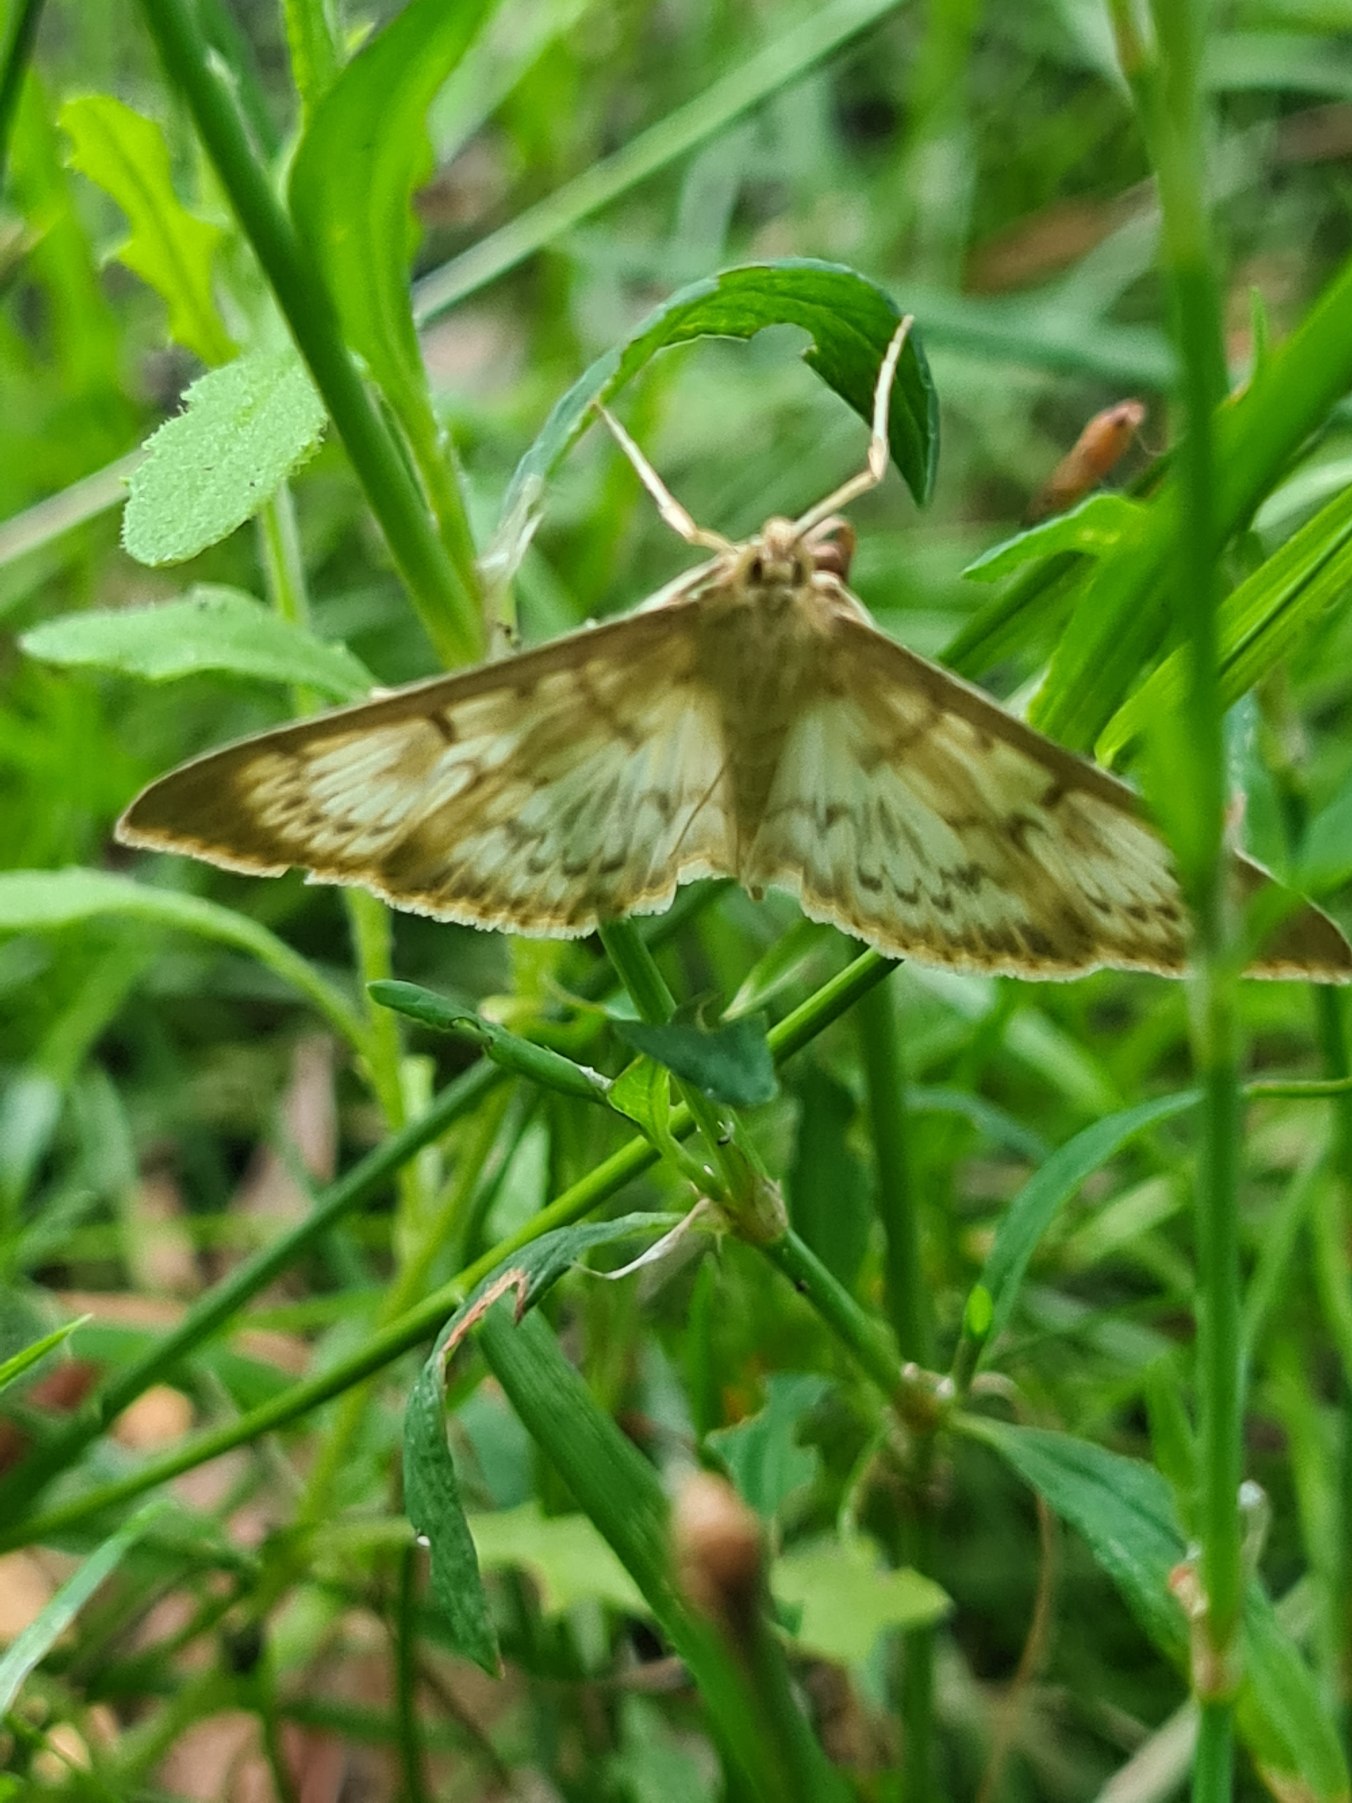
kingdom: Animalia
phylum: Arthropoda
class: Insecta
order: Lepidoptera
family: Crambidae
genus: Patania
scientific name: Patania ruralis
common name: Perlemorshalvmøl
